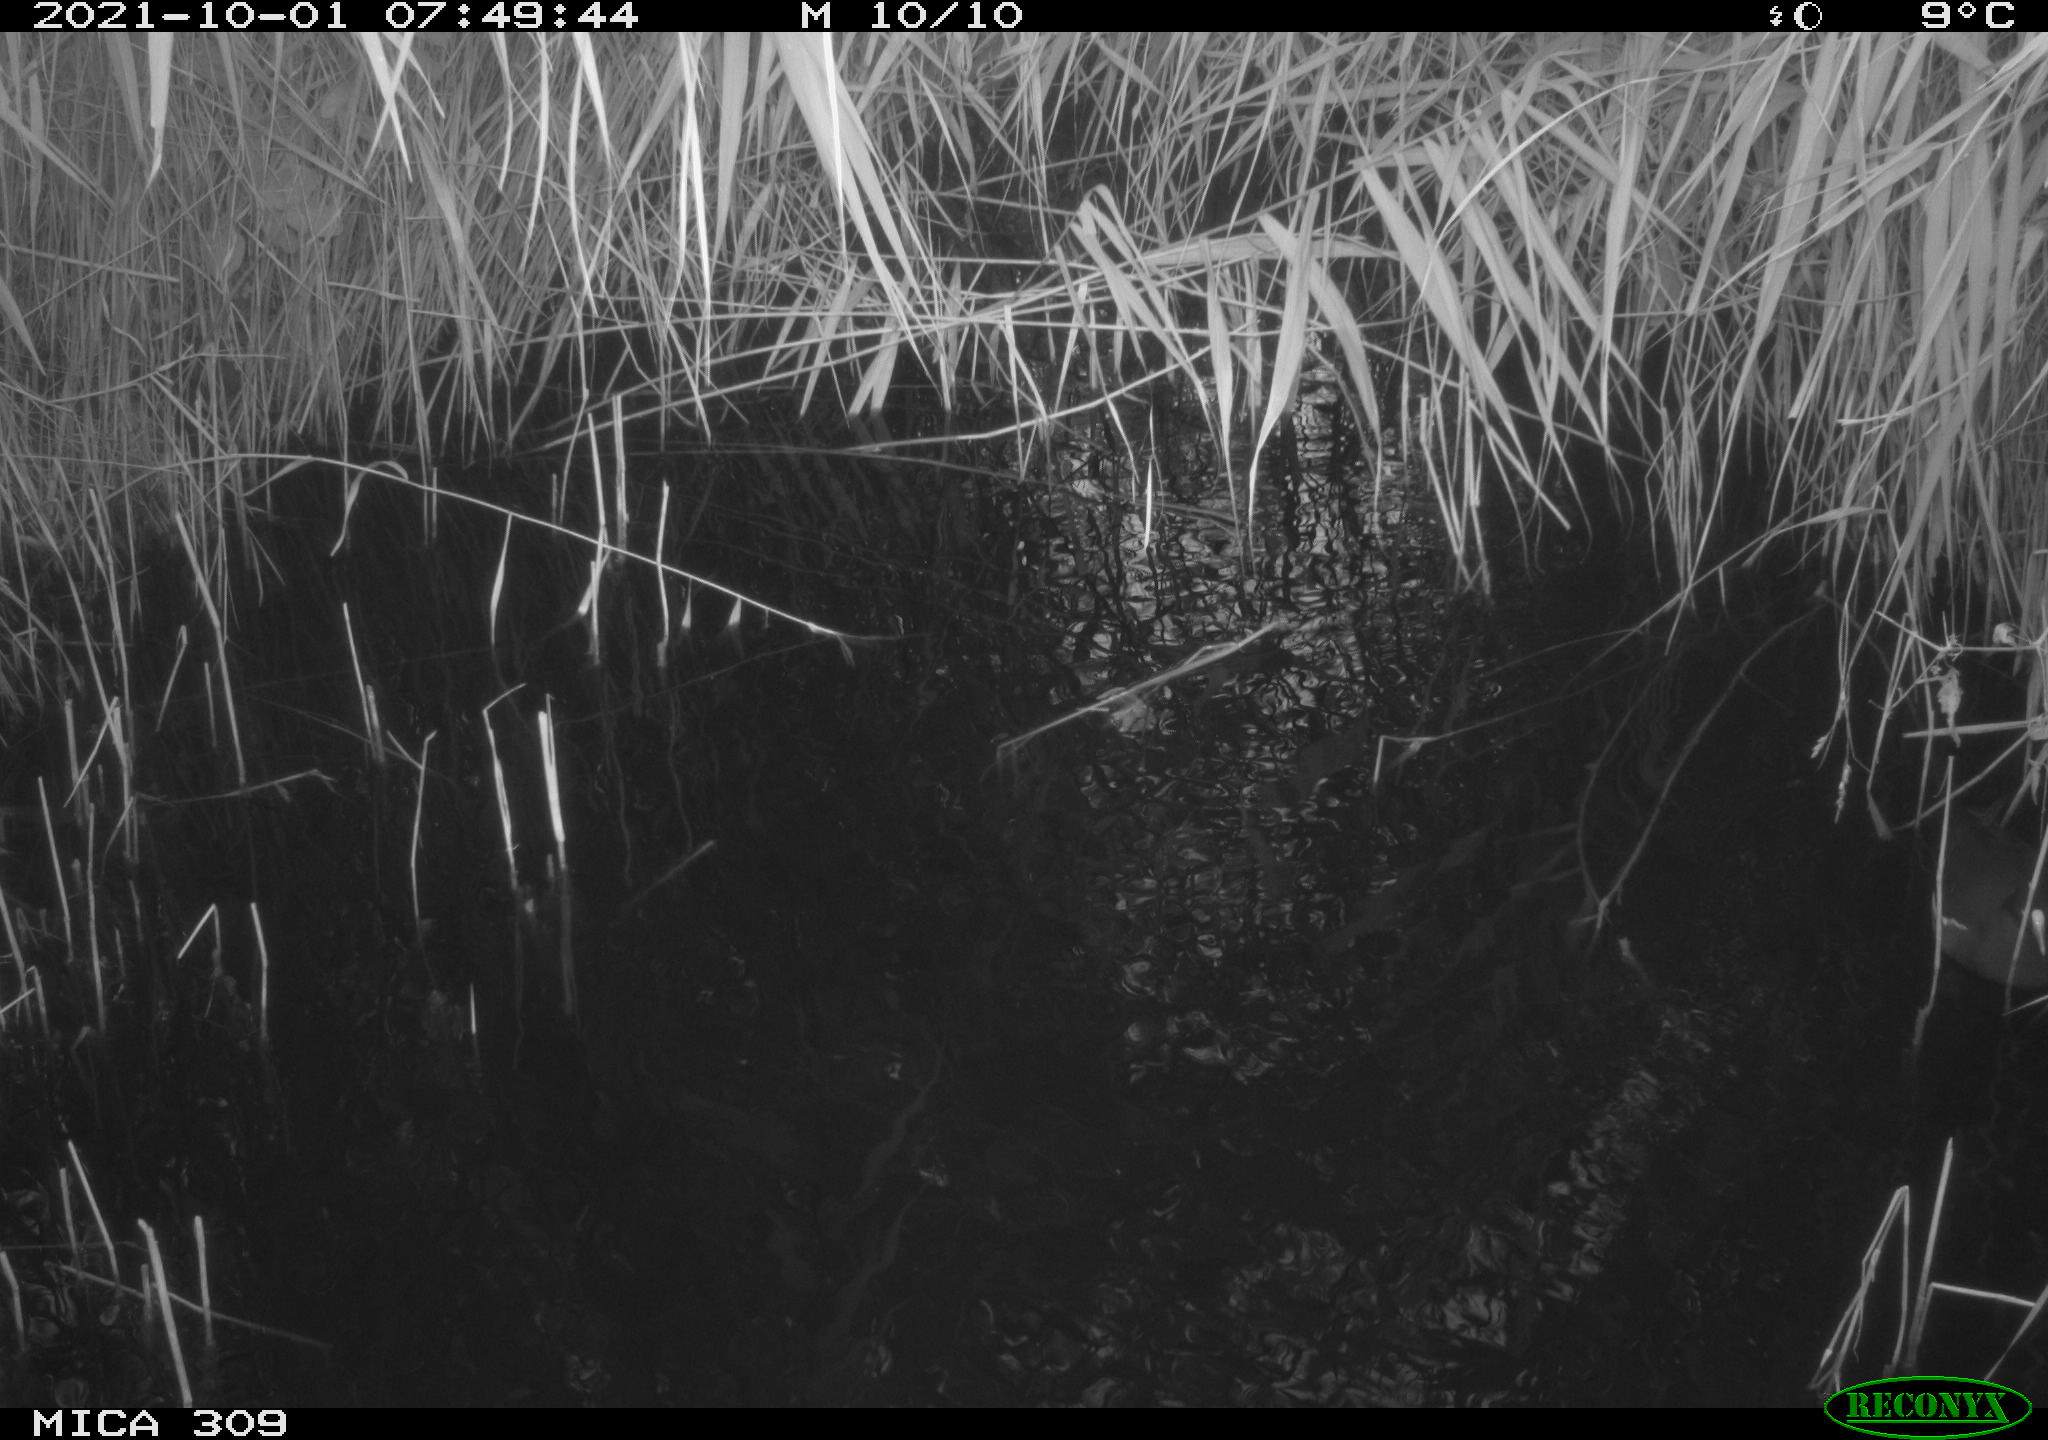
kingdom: Animalia
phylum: Chordata
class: Aves
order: Gruiformes
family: Rallidae
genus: Gallinula
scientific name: Gallinula chloropus
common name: Common moorhen
